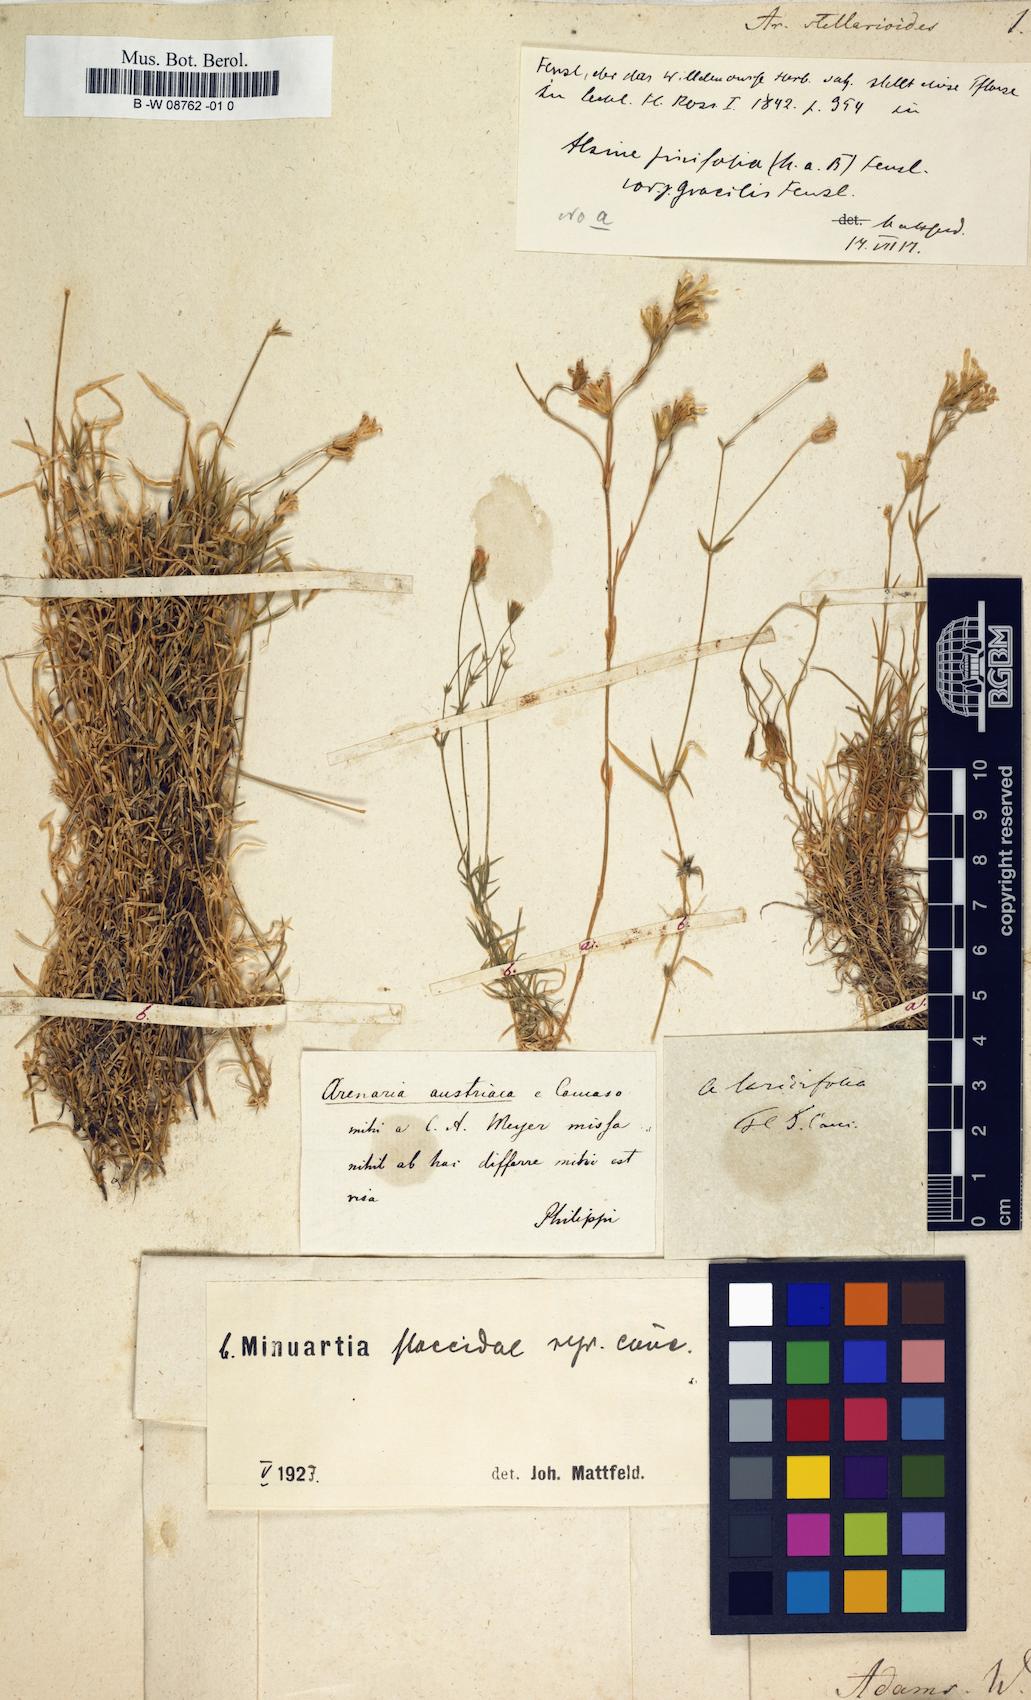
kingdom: Plantae
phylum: Tracheophyta
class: Magnoliopsida
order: Caryophyllales
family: Caryophyllaceae
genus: Arenaria
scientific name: Arenaria stellarioides
